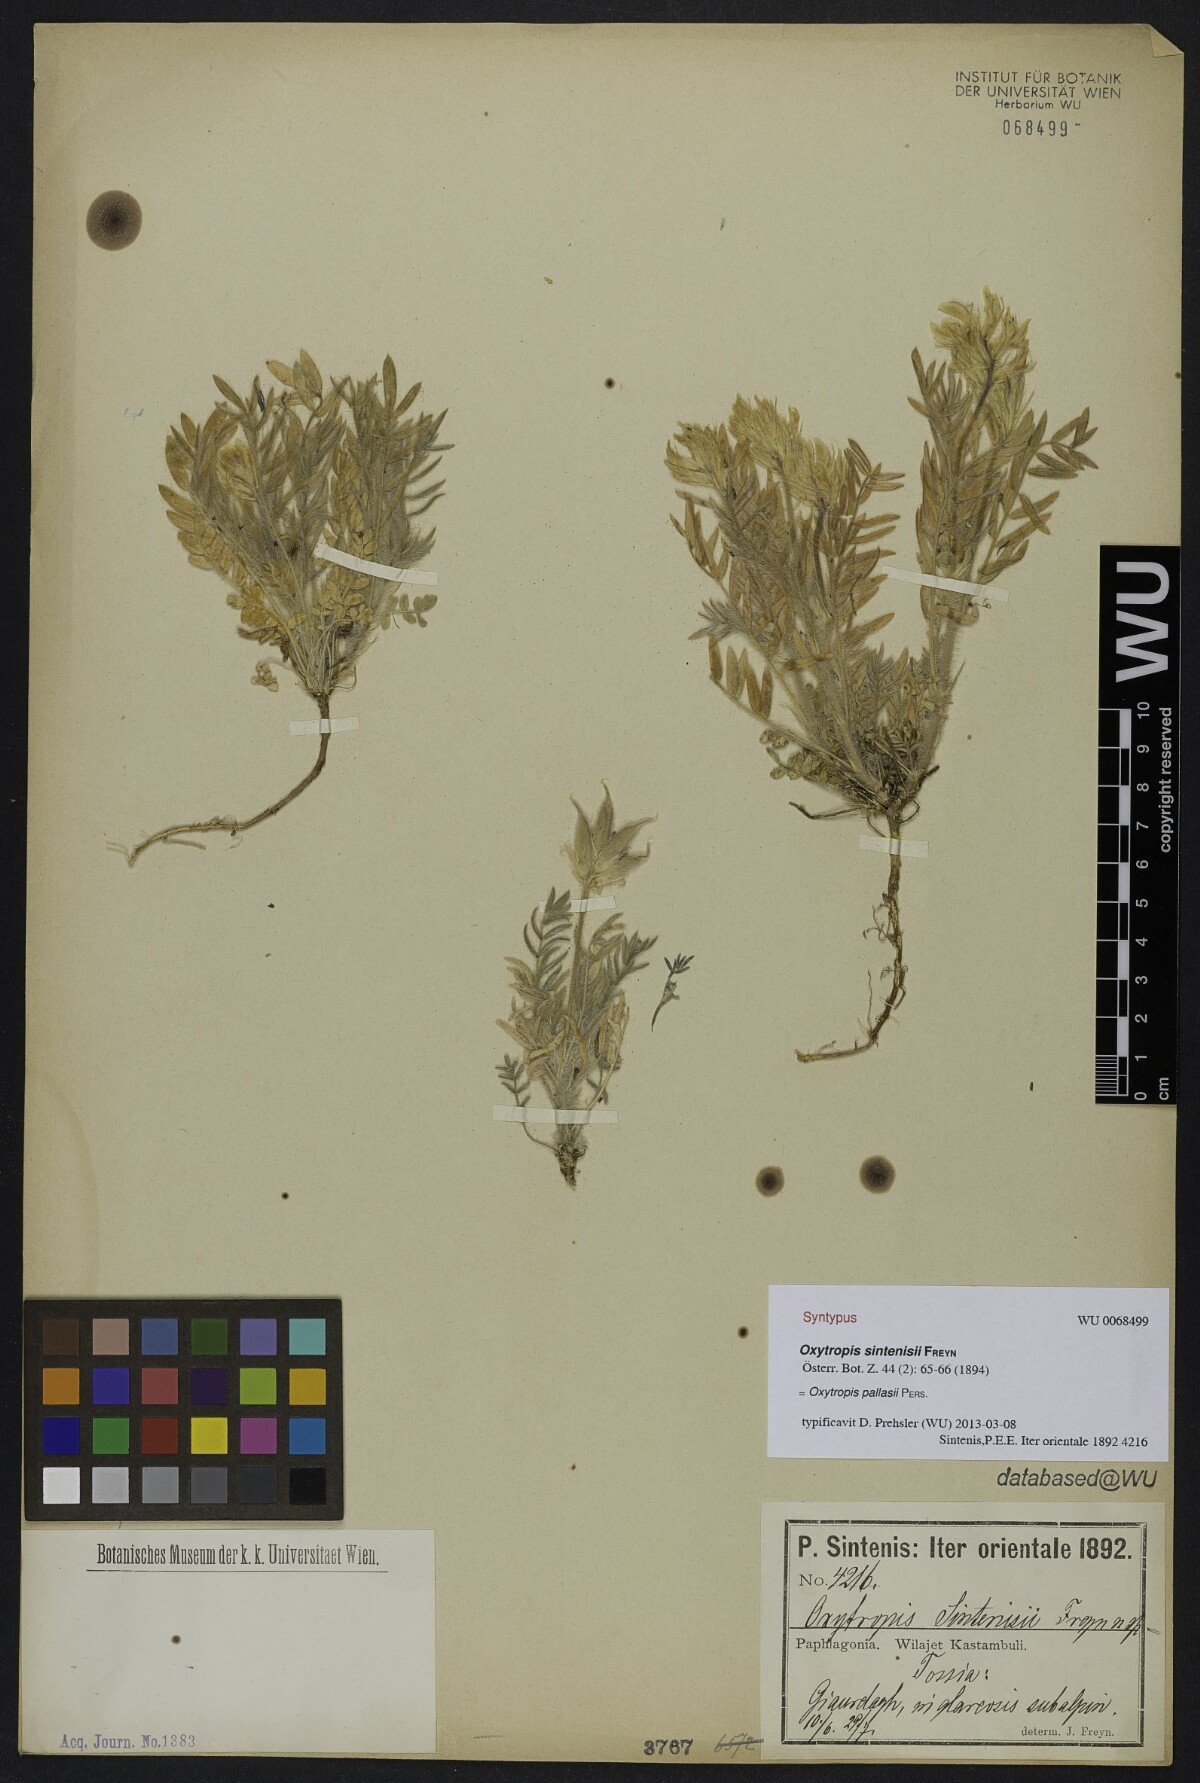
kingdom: Plantae
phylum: Tracheophyta
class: Magnoliopsida
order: Fabales
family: Fabaceae
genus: Oxytropis
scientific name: Oxytropis pallasii
